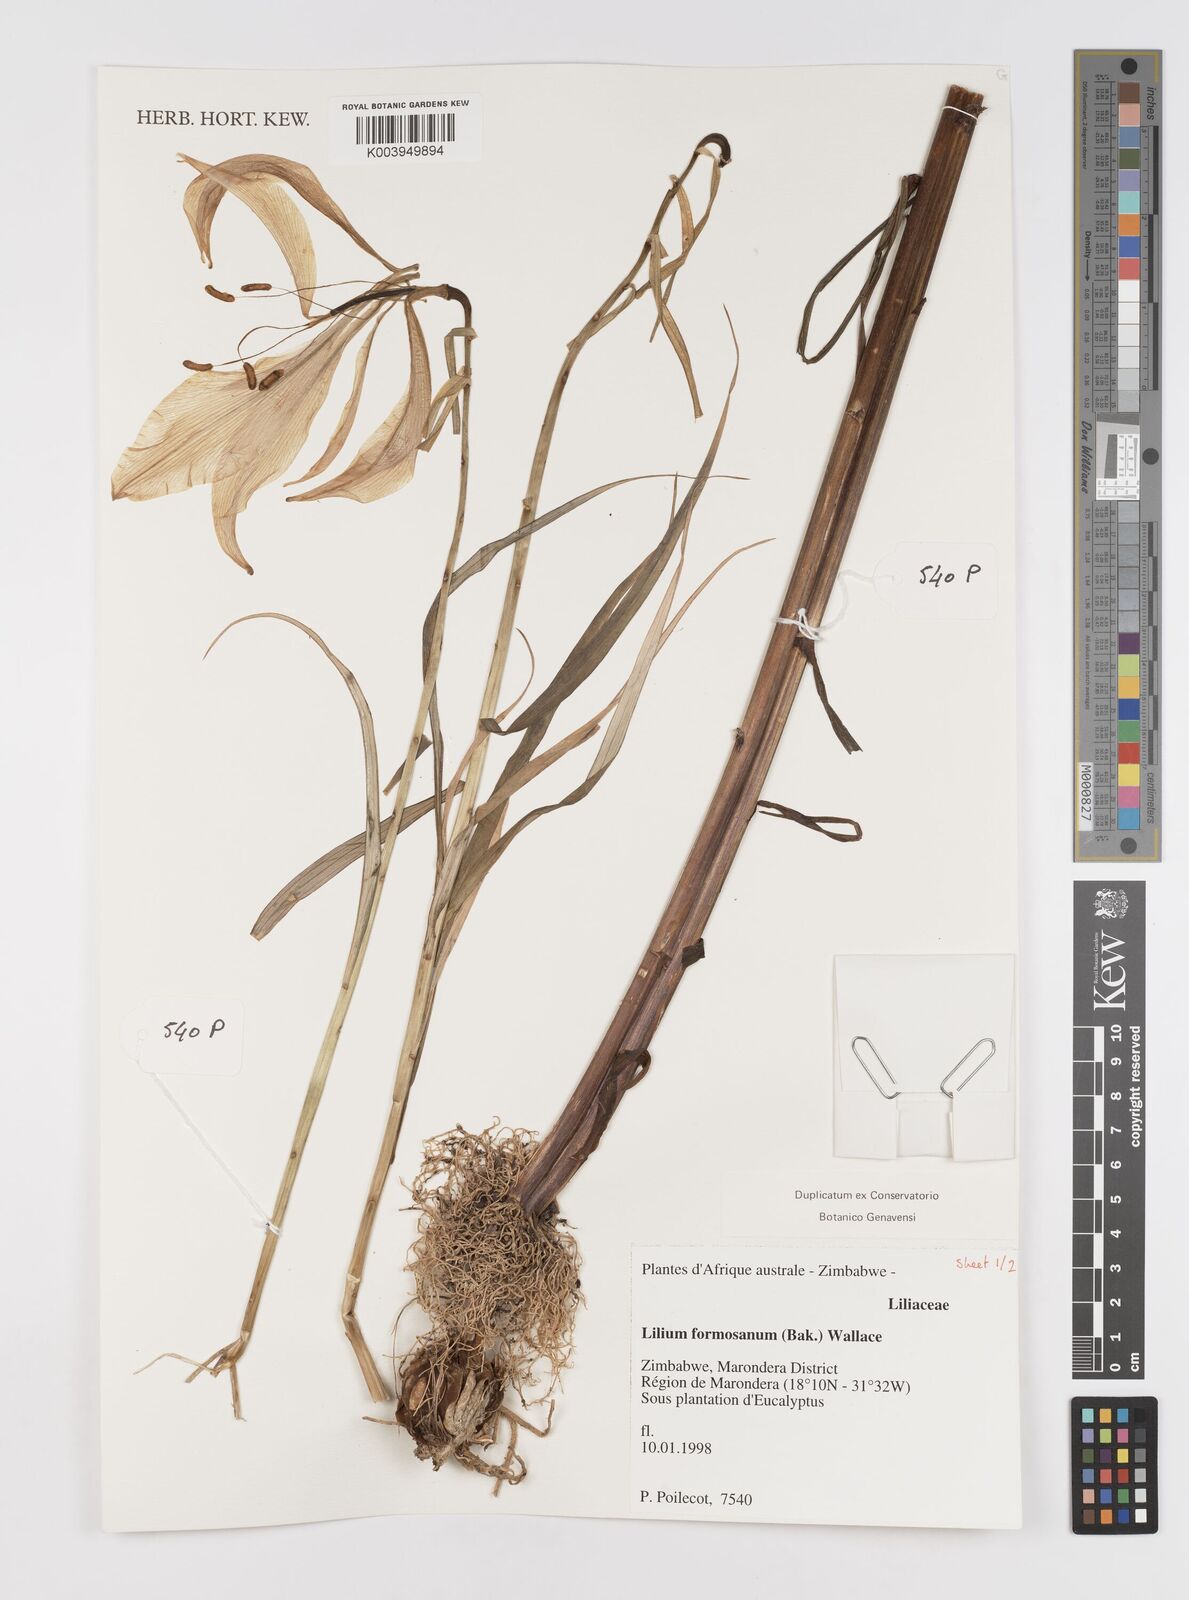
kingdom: Plantae
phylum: Tracheophyta
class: Liliopsida
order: Liliales
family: Liliaceae
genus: Lilium
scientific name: Lilium formosanum
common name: Formosa lily
